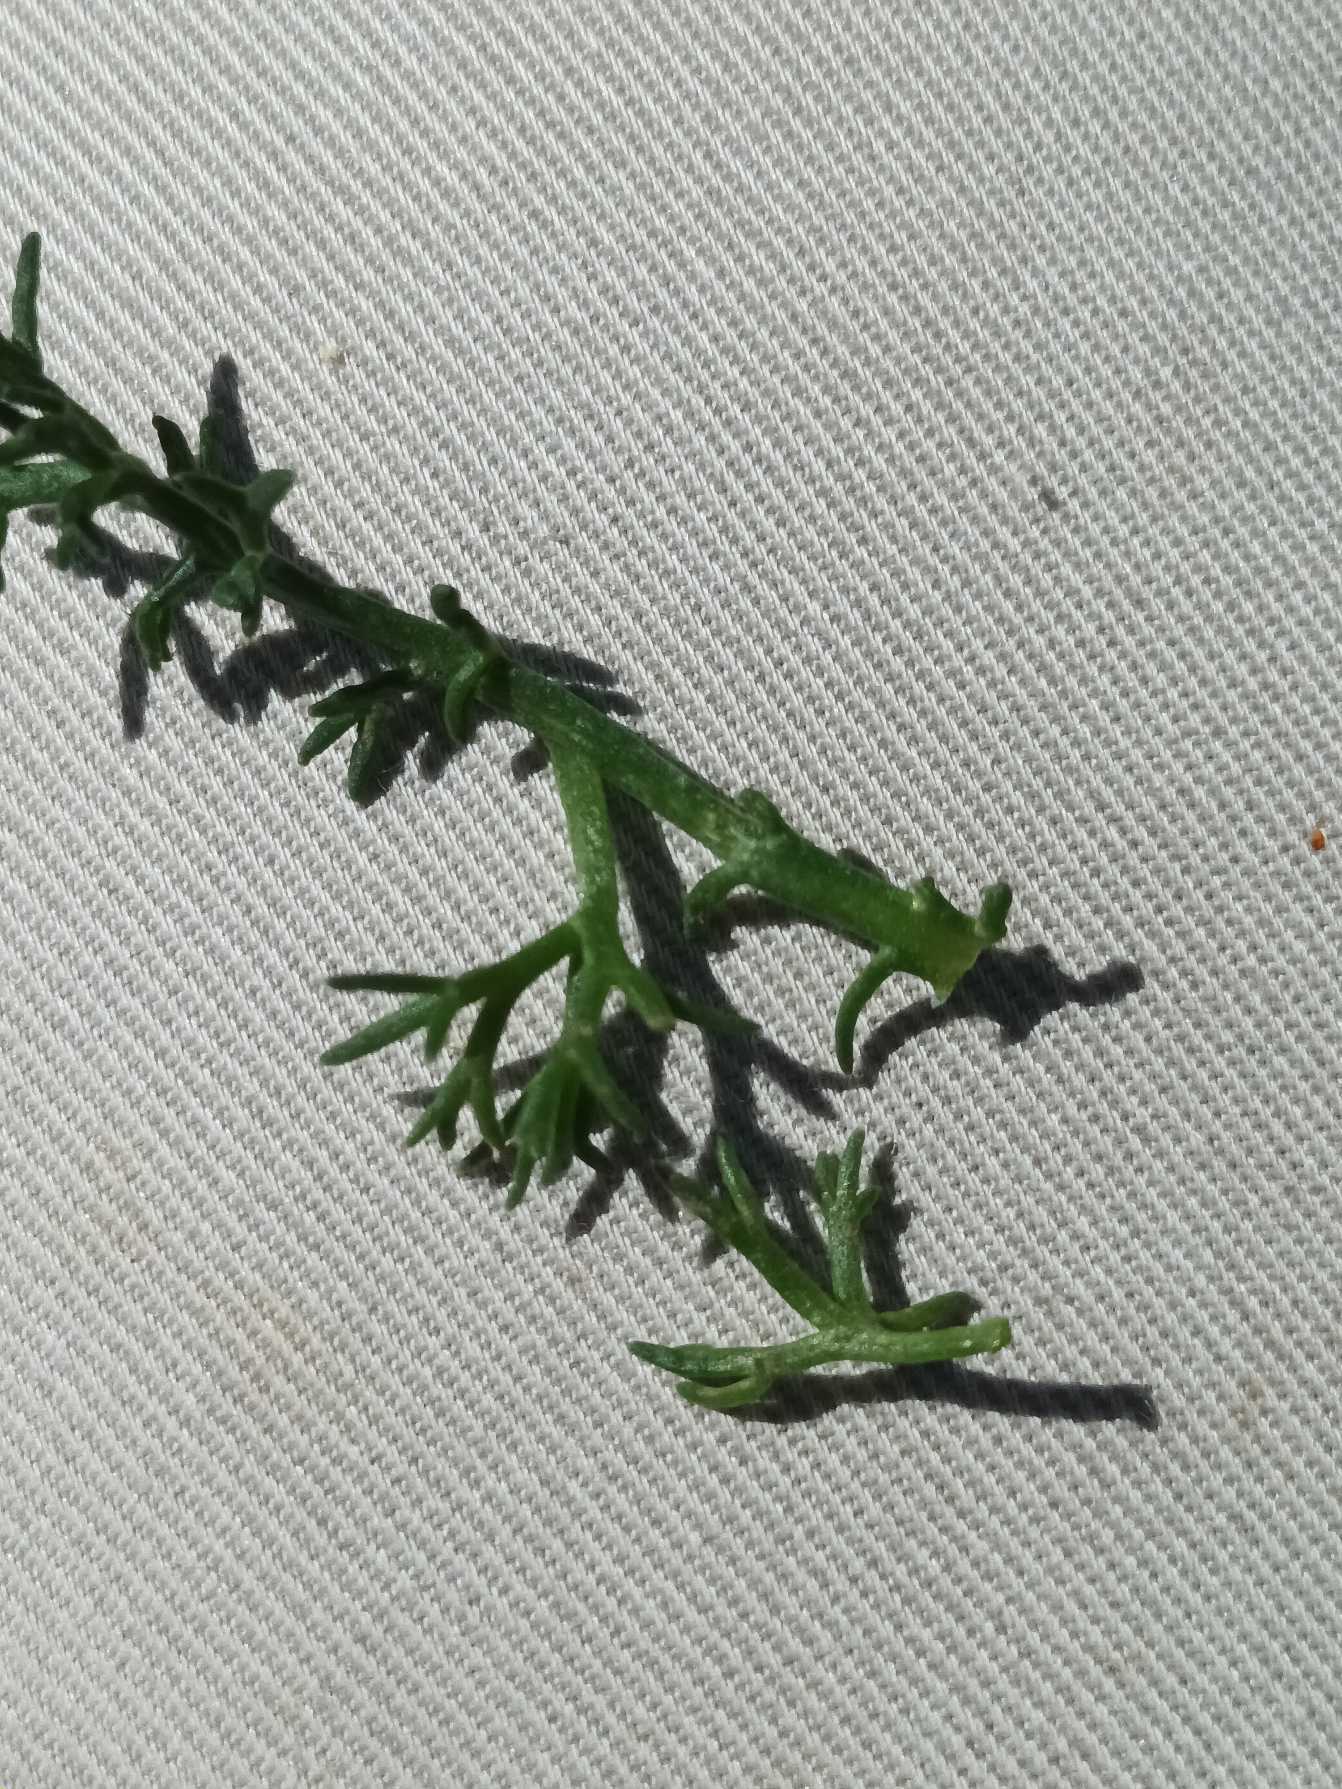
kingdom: Plantae
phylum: Tracheophyta
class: Magnoliopsida
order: Asterales
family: Asteraceae
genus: Tripleurospermum
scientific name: Tripleurospermum maritimum
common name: Strand-kamille
